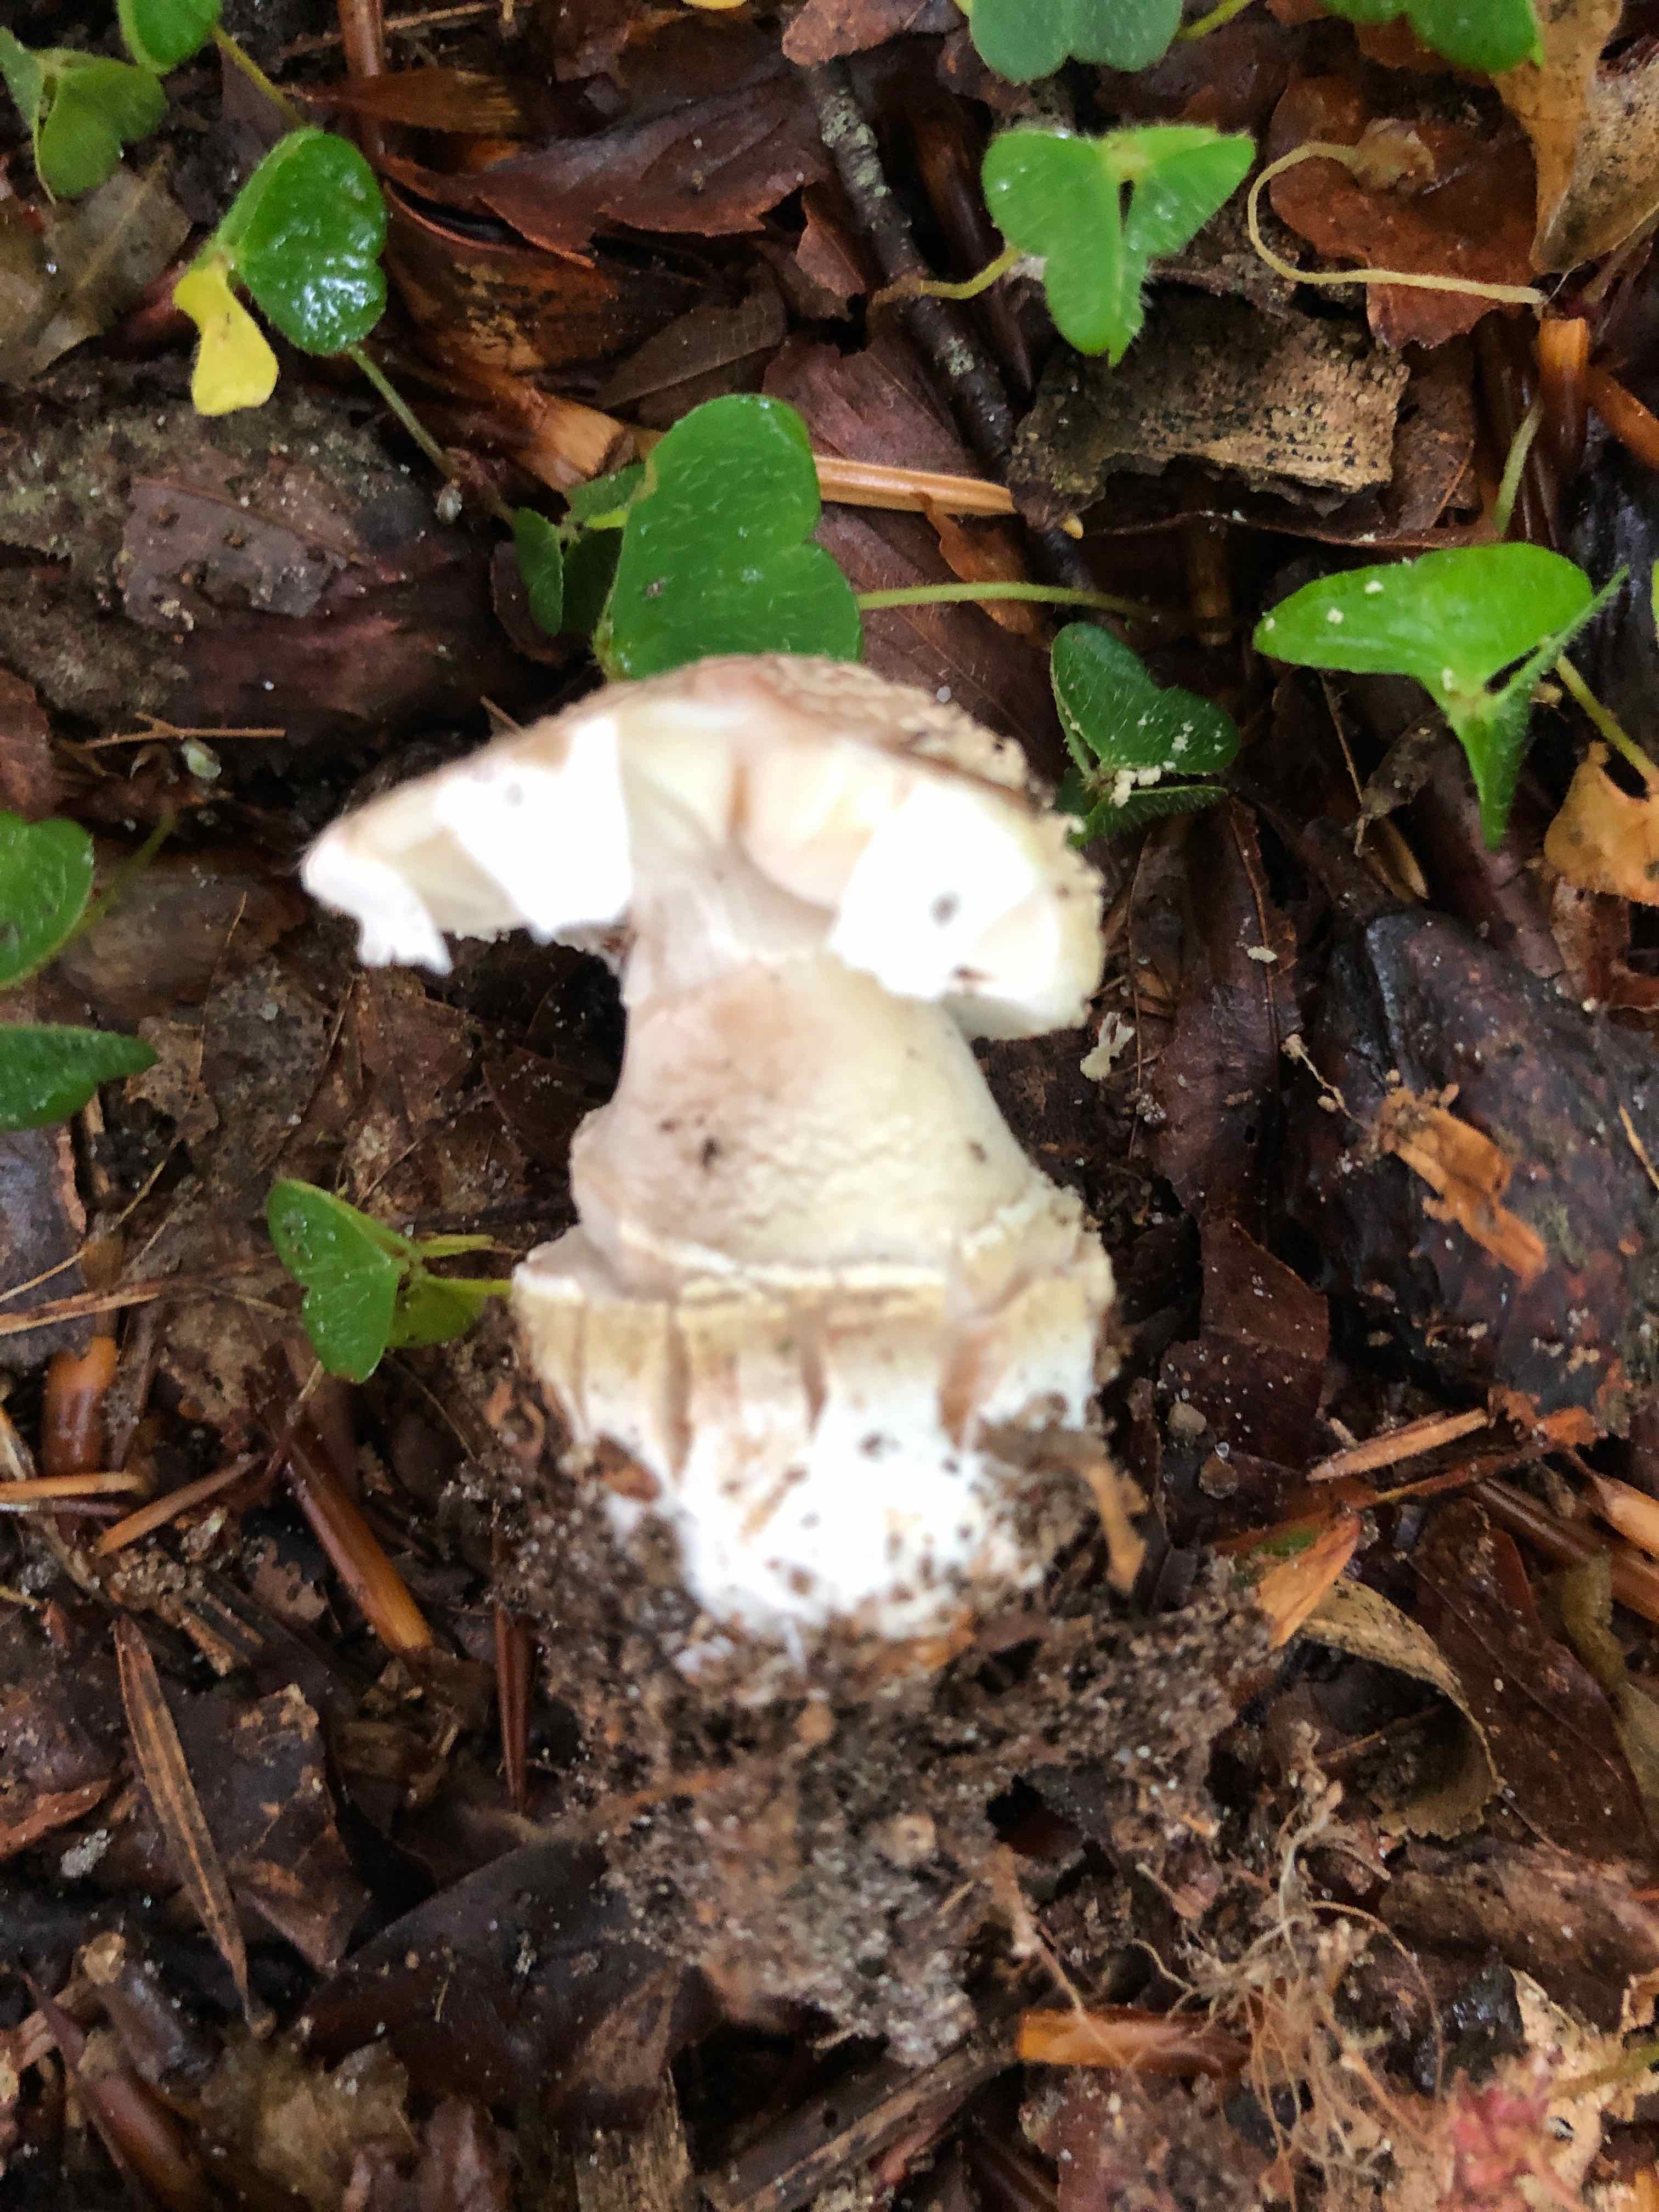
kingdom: Fungi
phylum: Basidiomycota
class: Agaricomycetes
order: Agaricales
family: Amanitaceae
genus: Amanita
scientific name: Amanita rubescens
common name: rødmende fluesvamp
